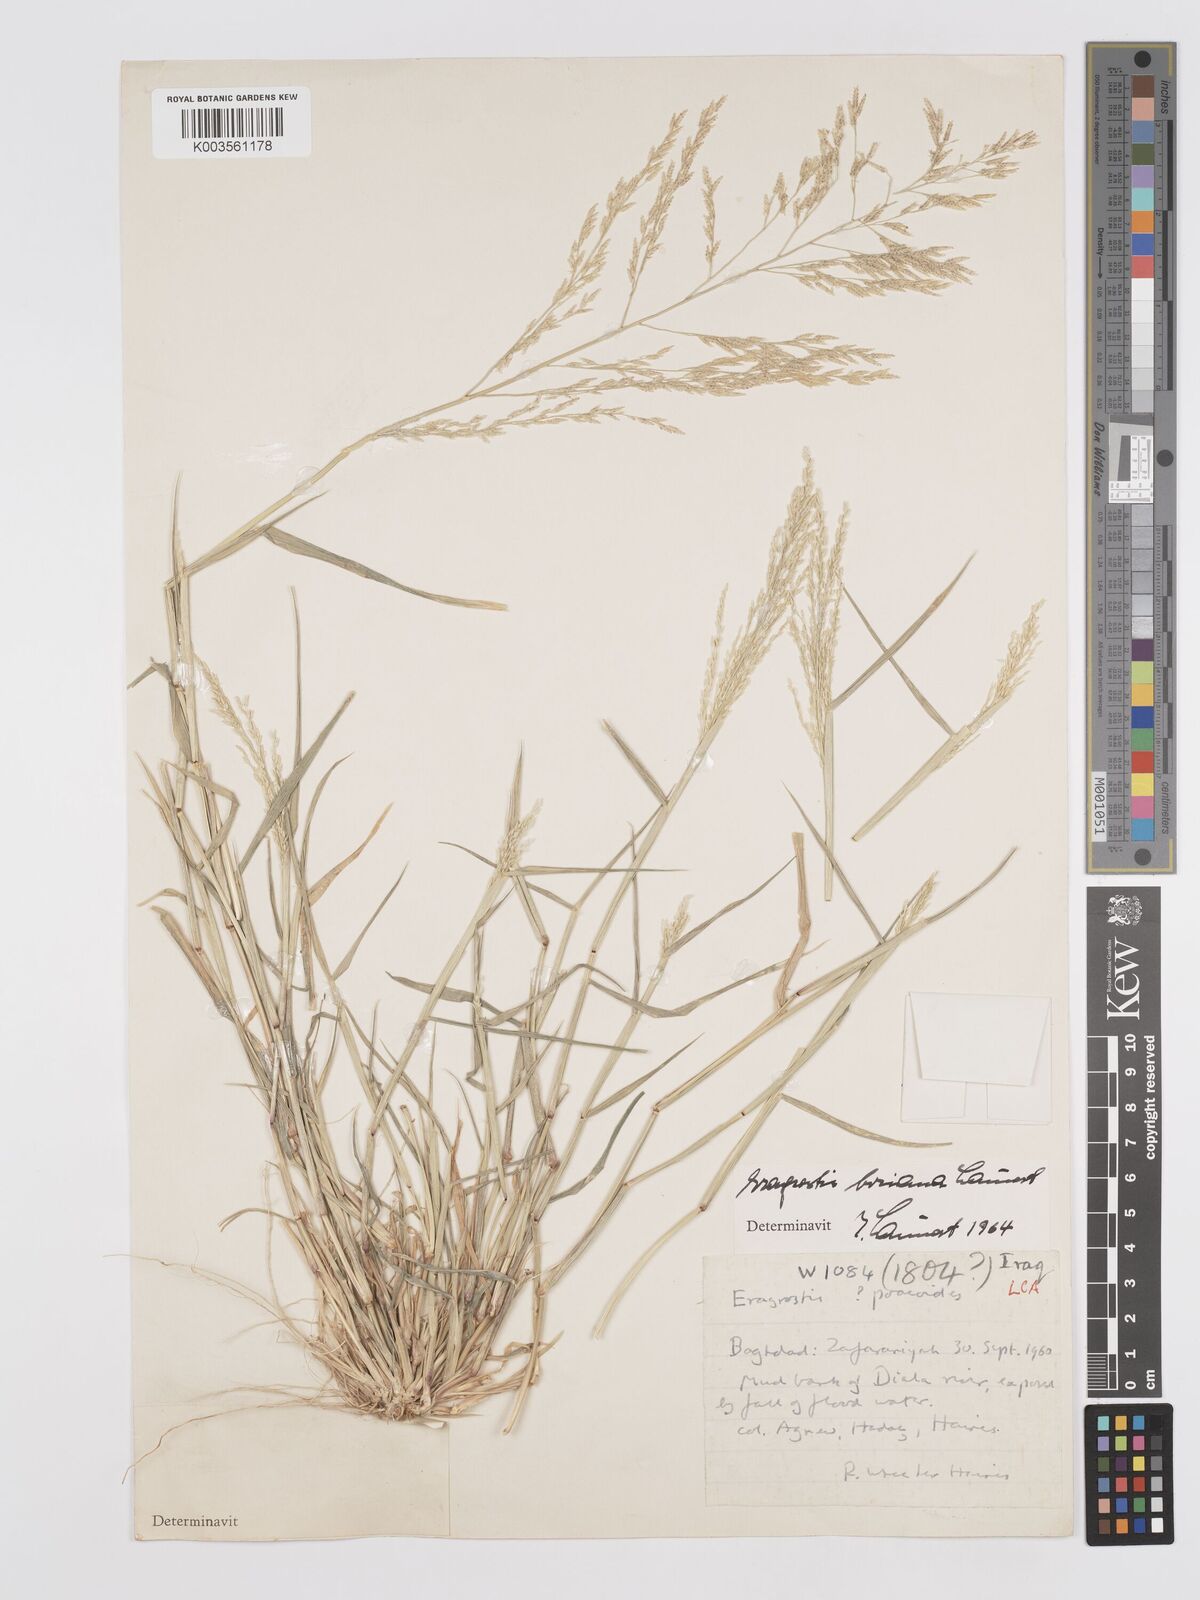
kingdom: Plantae
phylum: Tracheophyta
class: Liliopsida
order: Poales
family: Poaceae
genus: Eragrostis
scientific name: Eragrostis boriana
